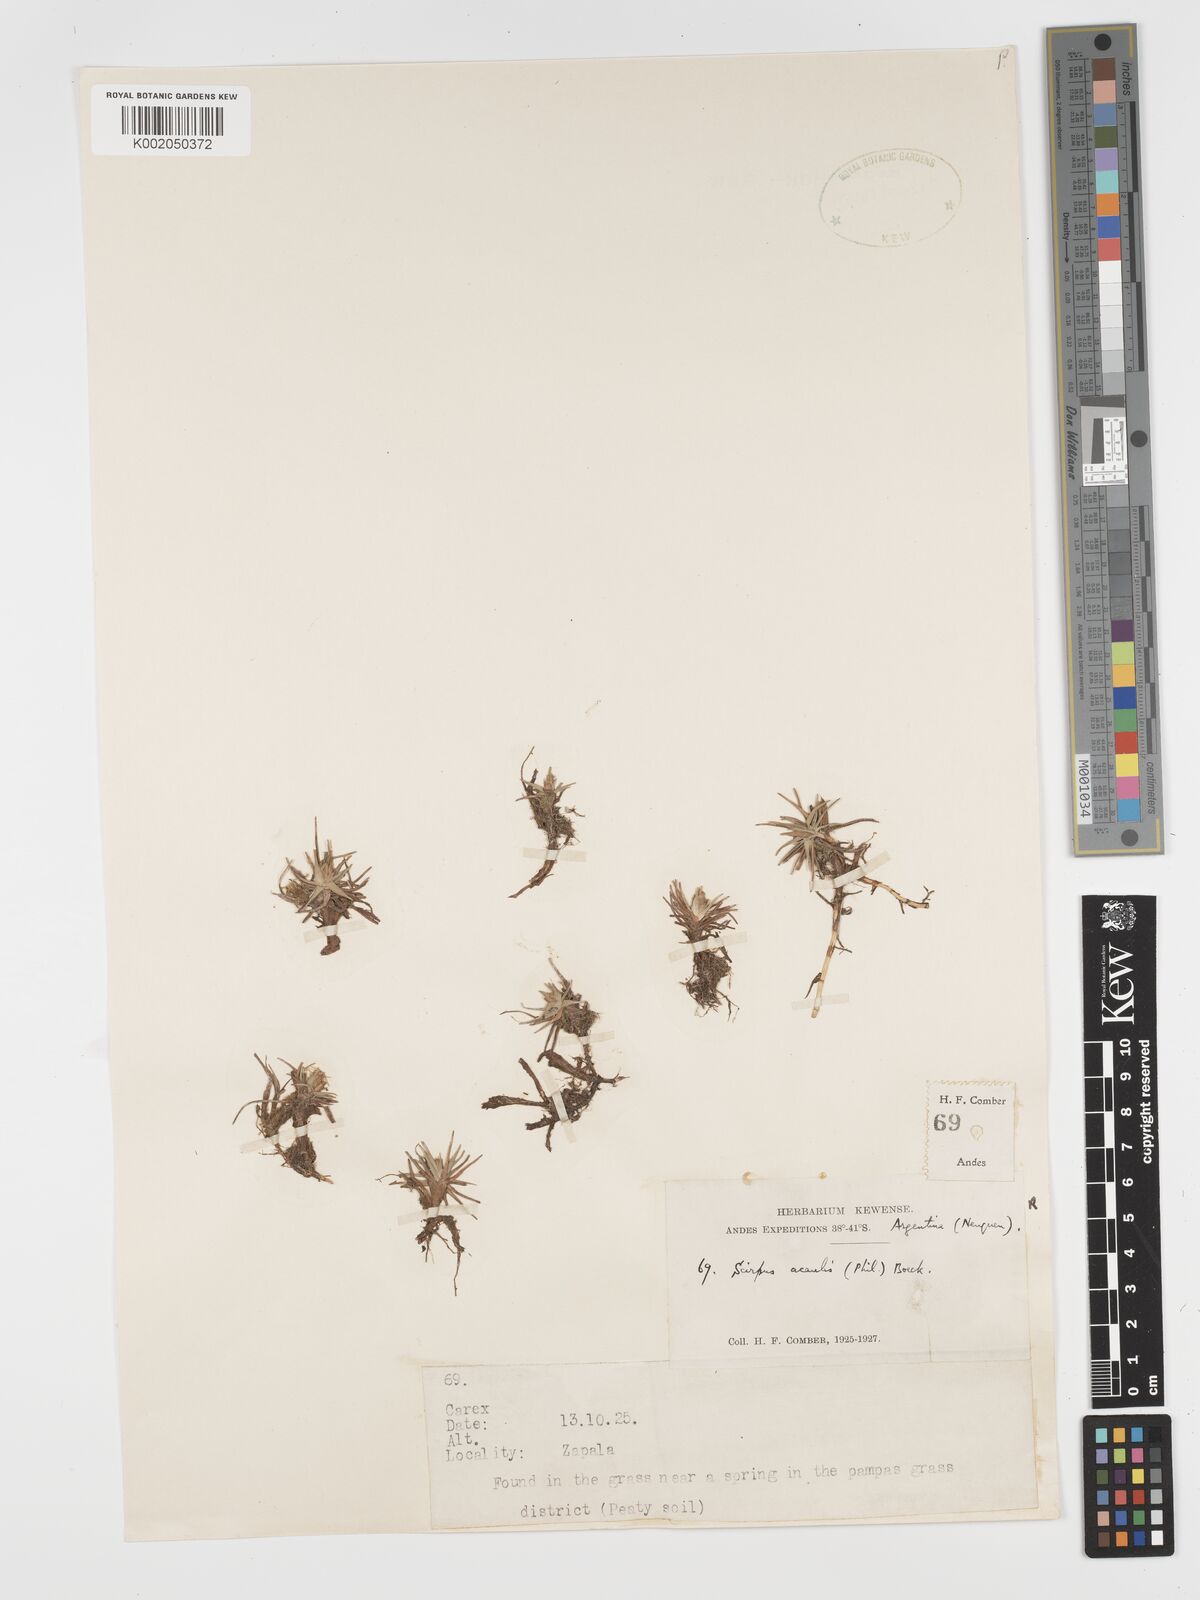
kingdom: Plantae
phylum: Tracheophyta
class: Liliopsida
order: Poales
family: Cyperaceae
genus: Phylloscirpus
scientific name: Phylloscirpus acaulis
